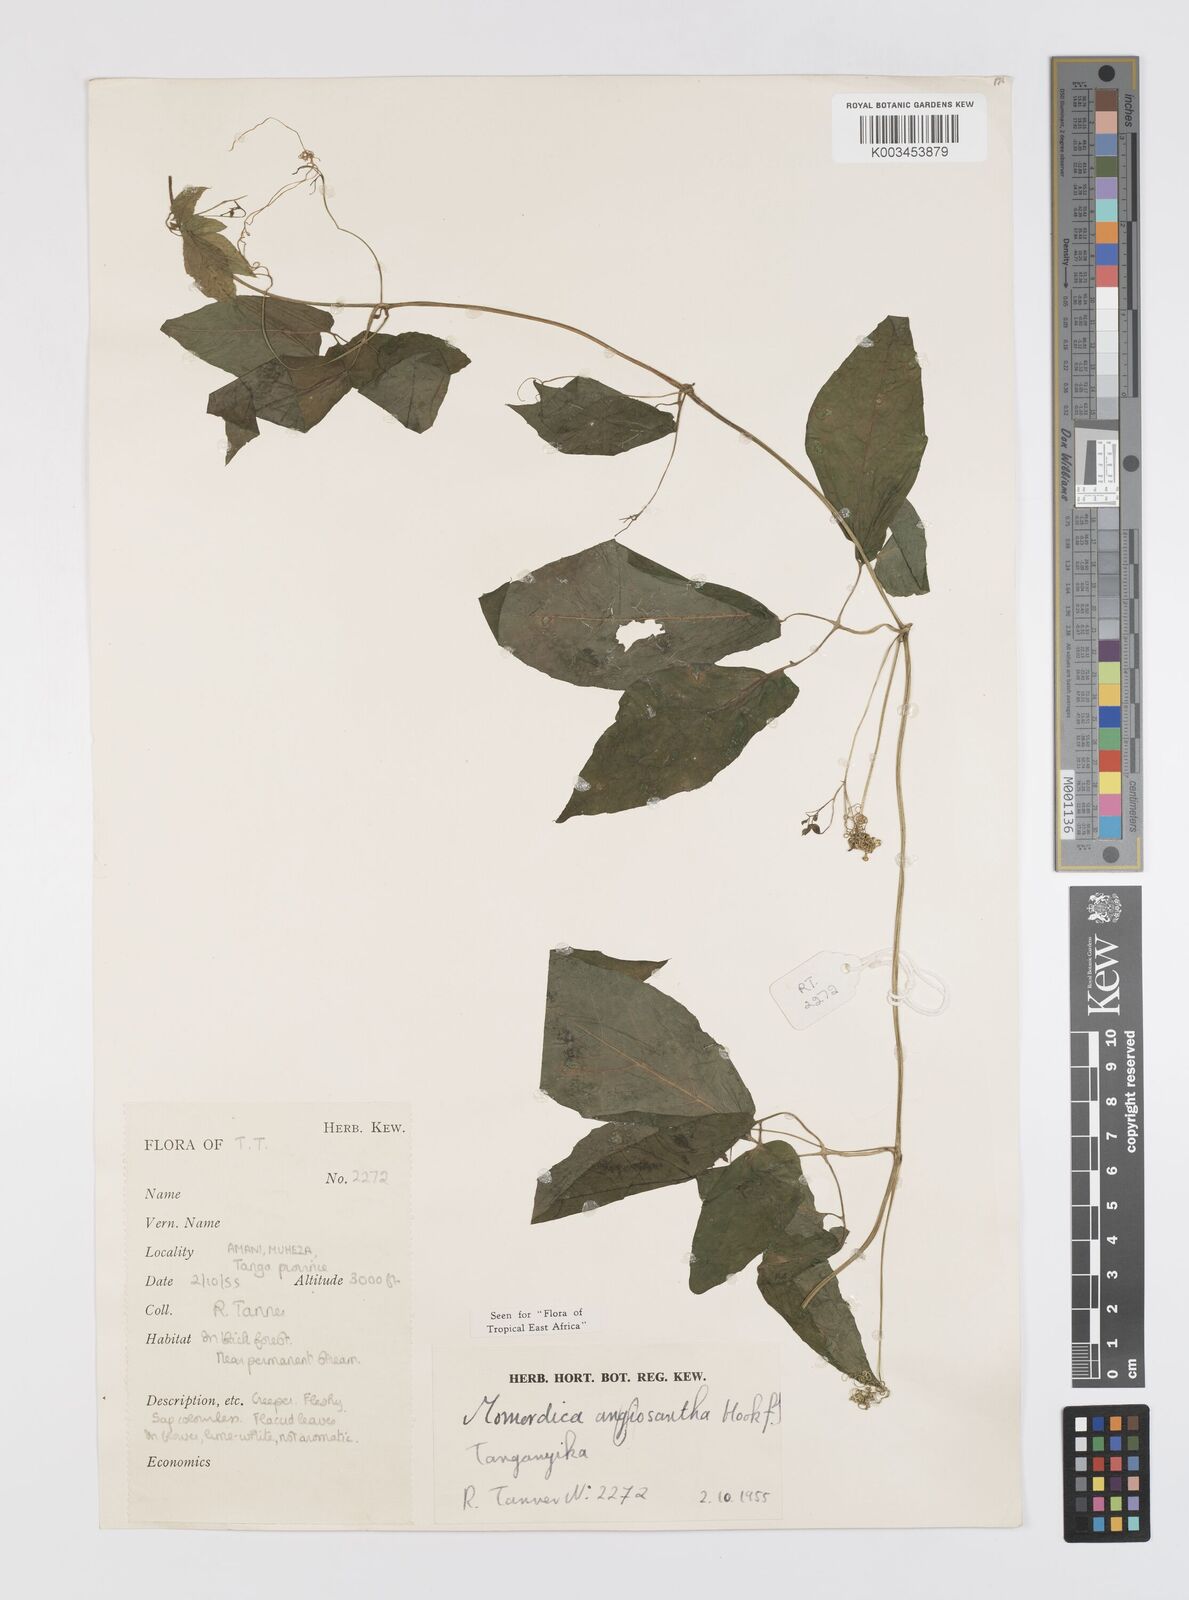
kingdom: Plantae
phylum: Tracheophyta
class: Magnoliopsida
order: Cucurbitales
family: Cucurbitaceae
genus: Momordica
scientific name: Momordica anigosantha
